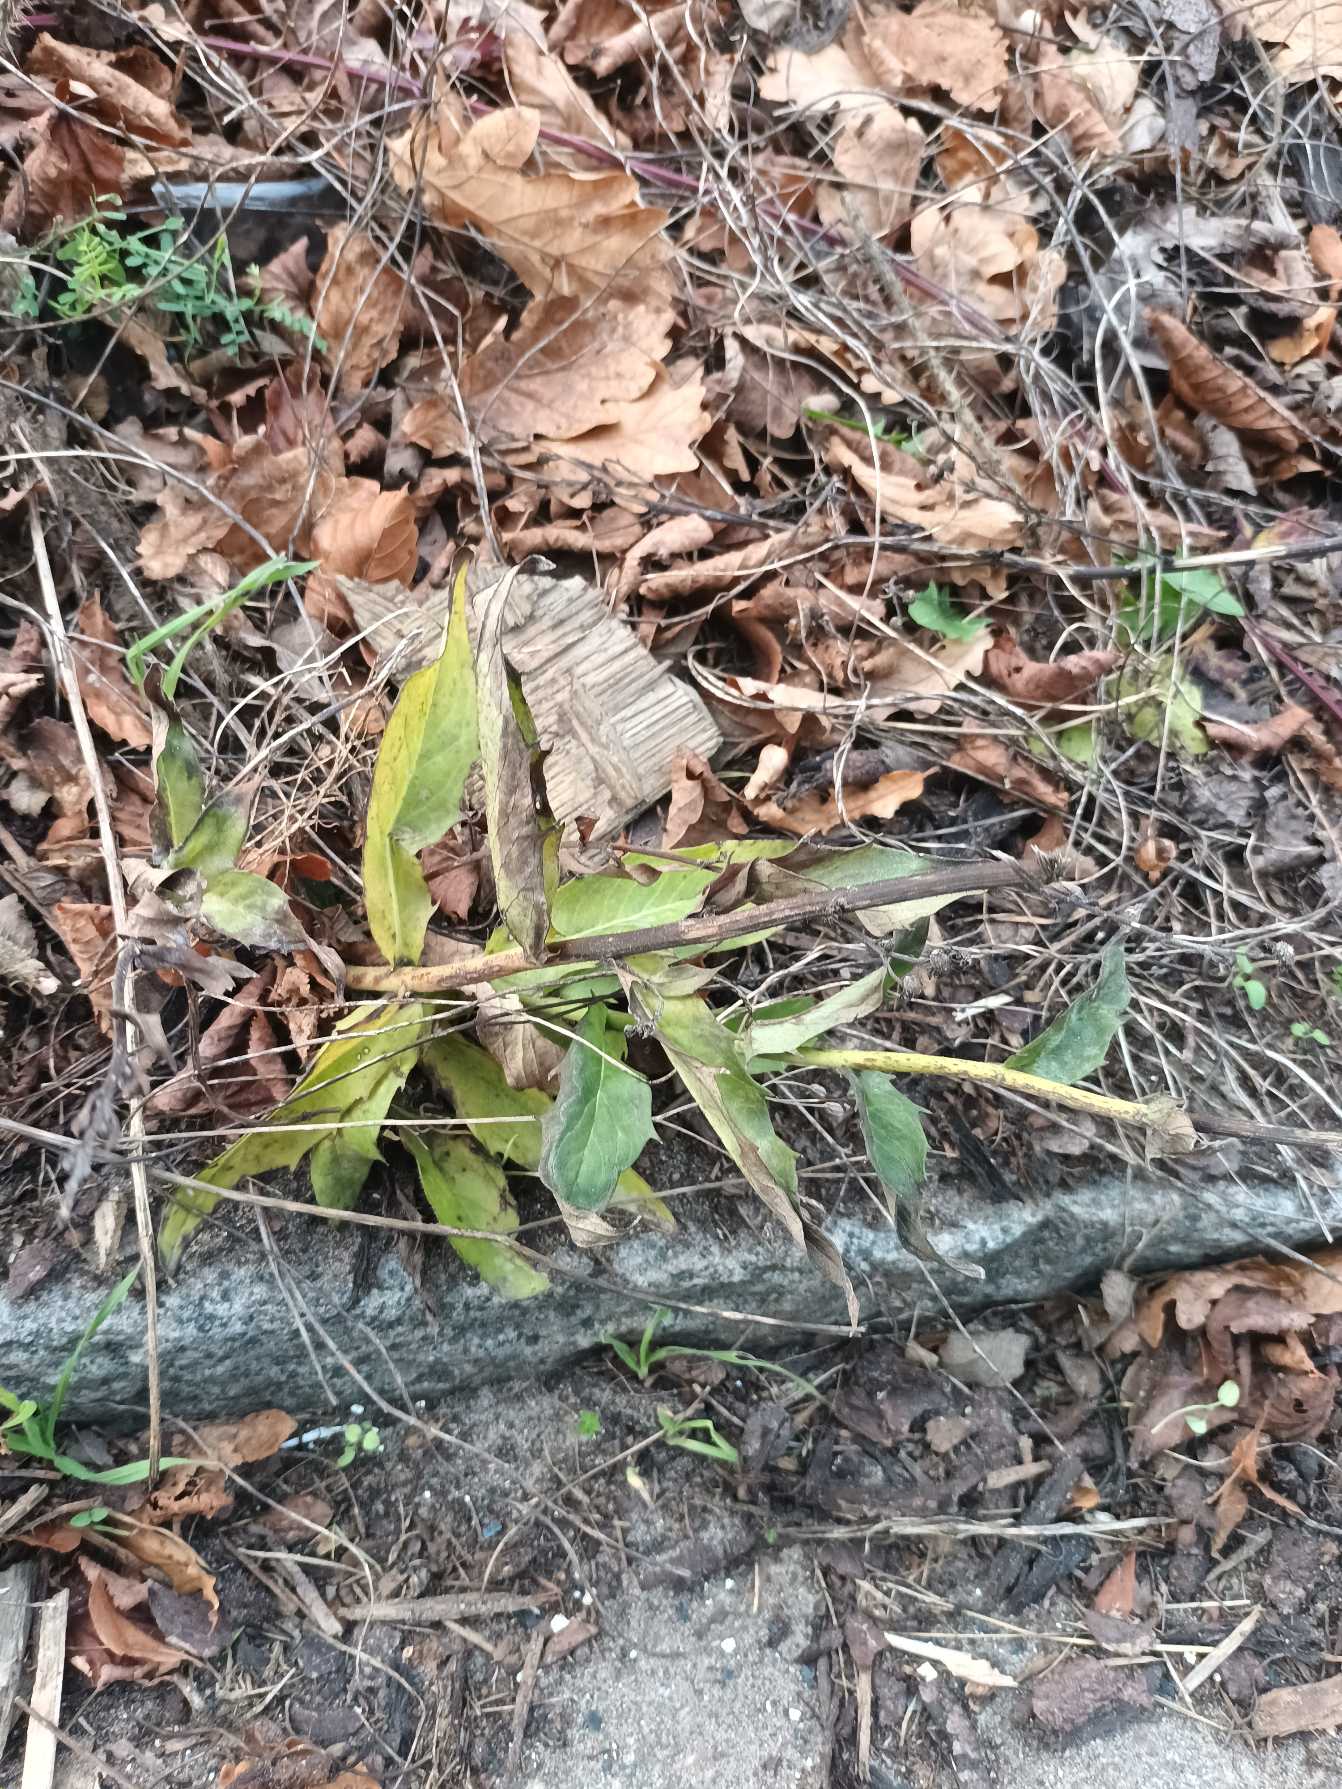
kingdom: Plantae
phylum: Tracheophyta
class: Magnoliopsida
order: Asterales
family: Asteraceae
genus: Hieracium
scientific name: Hieracium
